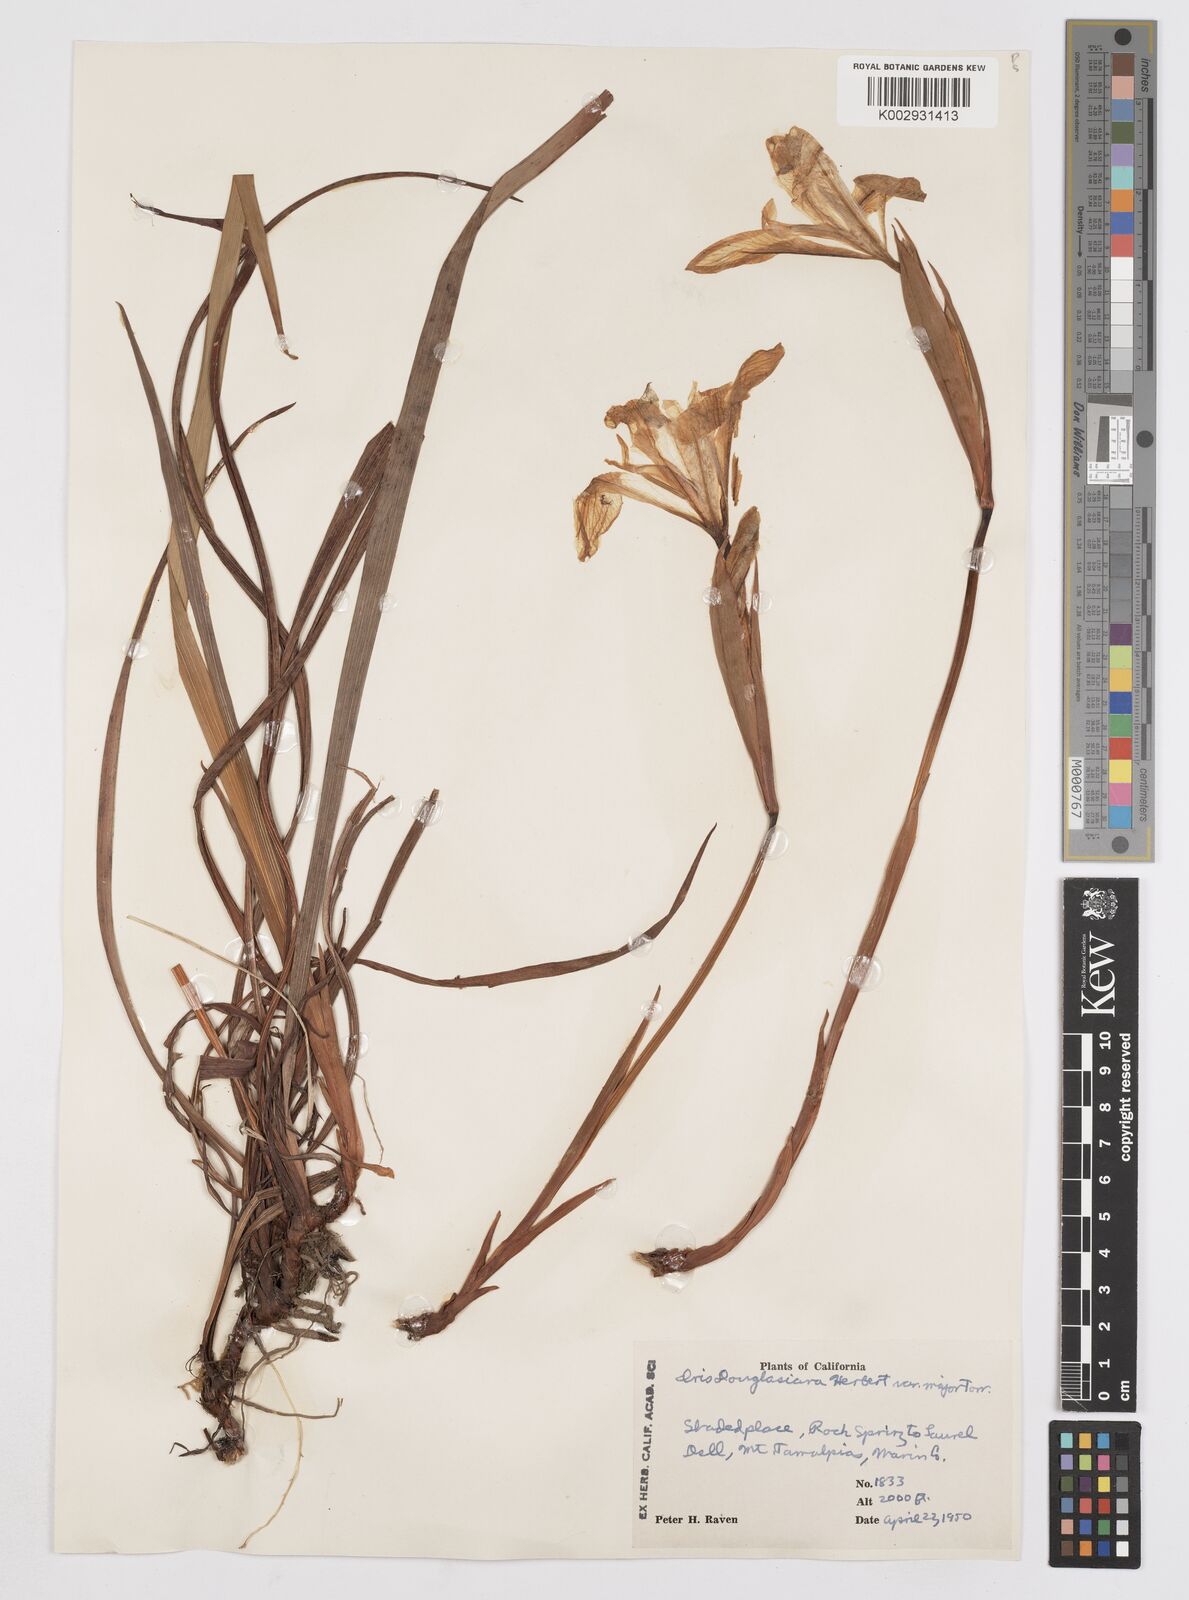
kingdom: Plantae
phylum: Tracheophyta
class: Liliopsida
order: Asparagales
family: Iridaceae
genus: Iris
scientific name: Iris douglasiana
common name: Marin iris
